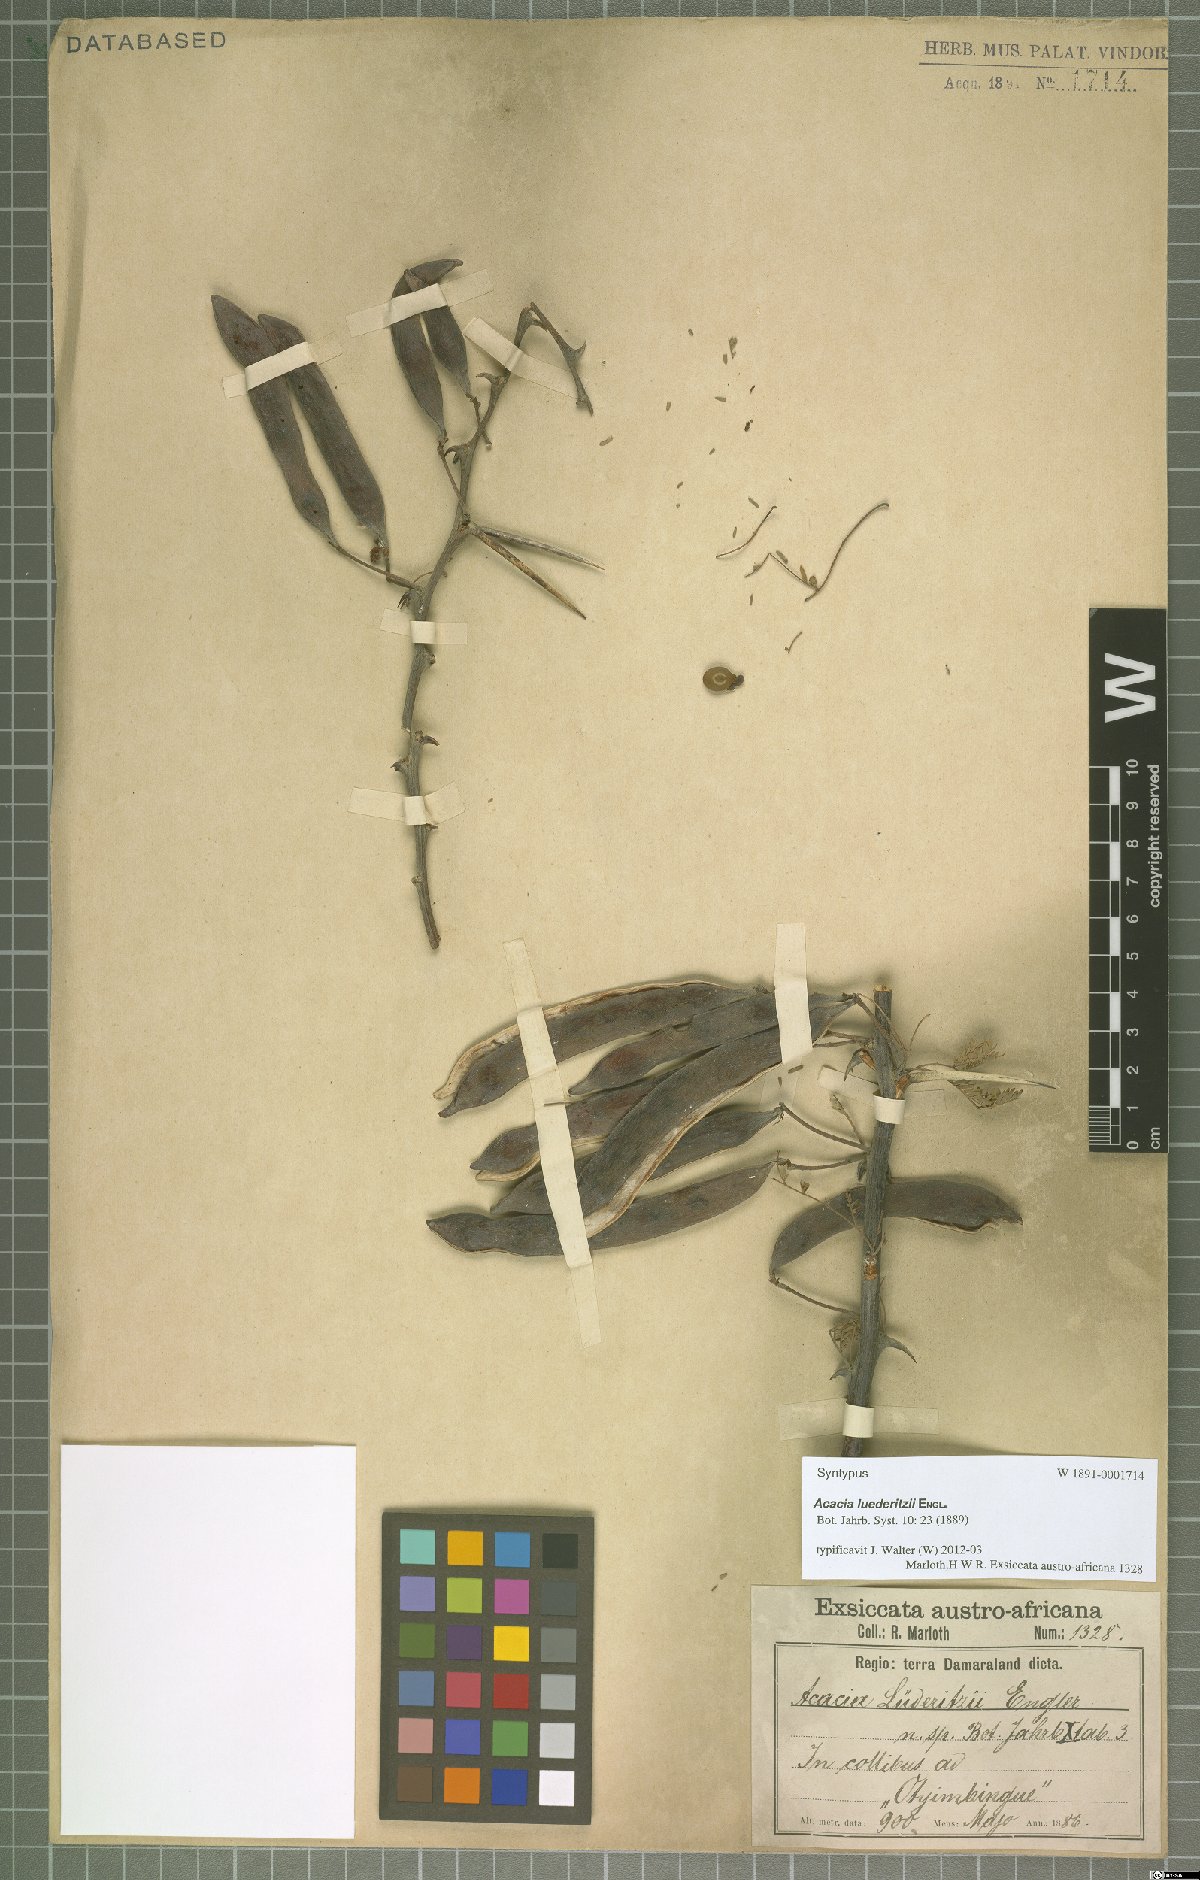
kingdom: Plantae
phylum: Tracheophyta
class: Magnoliopsida
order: Fabales
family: Fabaceae
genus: Vachellia
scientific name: Vachellia
